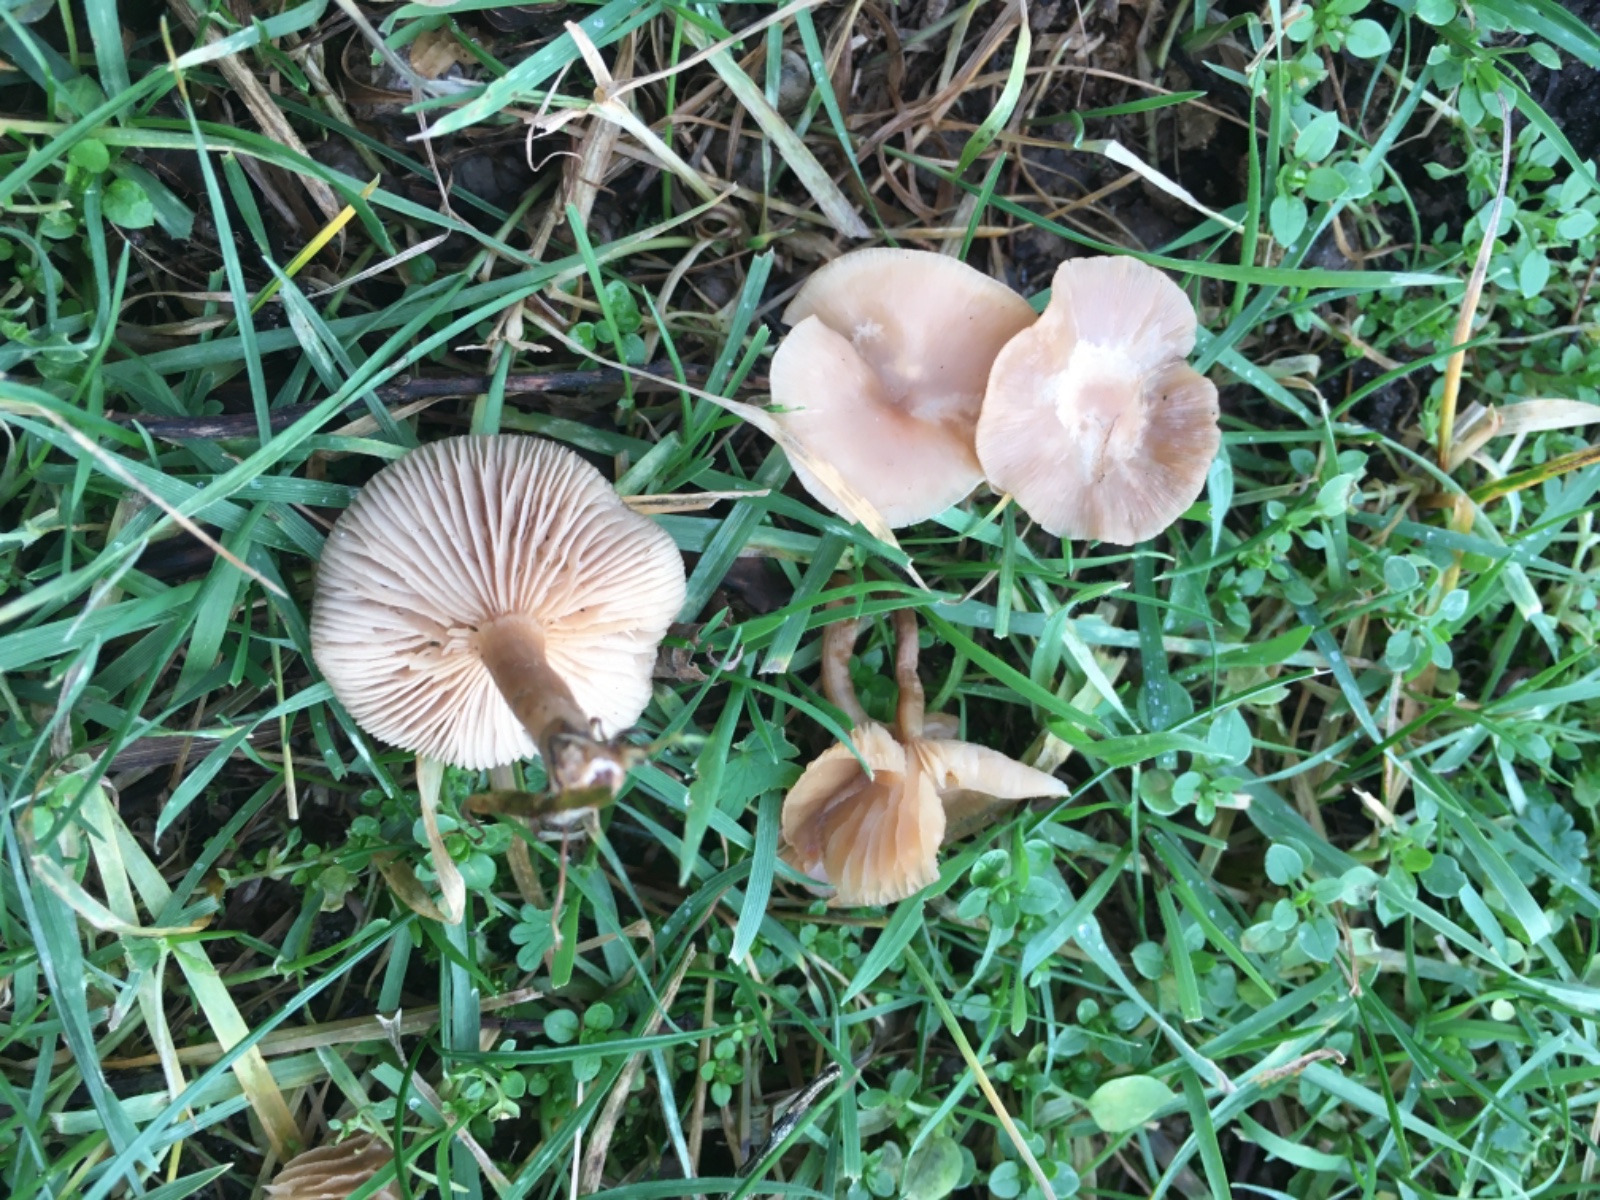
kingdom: Fungi
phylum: Basidiomycota
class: Agaricomycetes
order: Agaricales
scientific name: Agaricales
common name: champignonordenen
